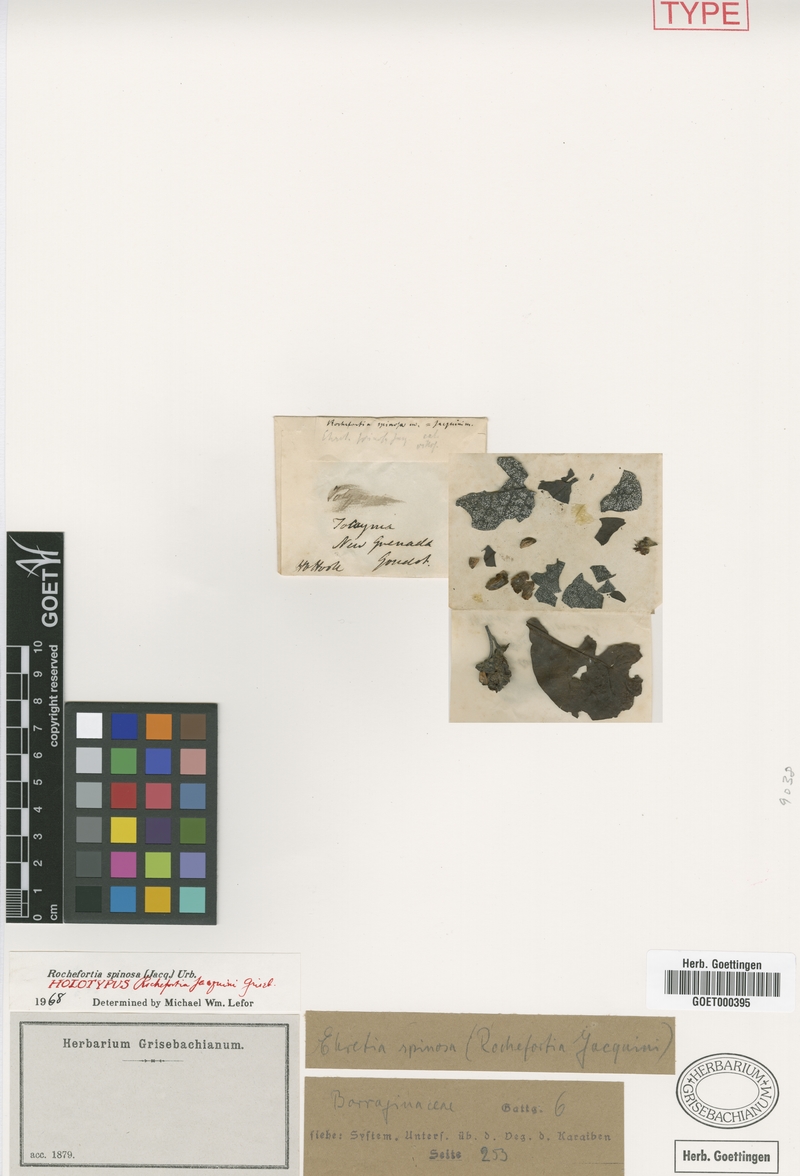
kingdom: Plantae
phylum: Tracheophyta
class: Magnoliopsida
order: Boraginales
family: Ehretiaceae
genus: Rochefortia
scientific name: Rochefortia spinosa
